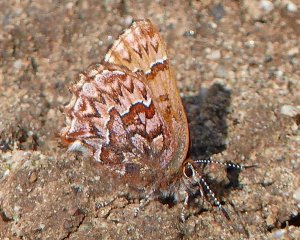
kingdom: Animalia
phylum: Arthropoda
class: Insecta
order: Lepidoptera
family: Lycaenidae
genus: Incisalia
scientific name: Incisalia eryphon
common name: Western Pine Elfin
